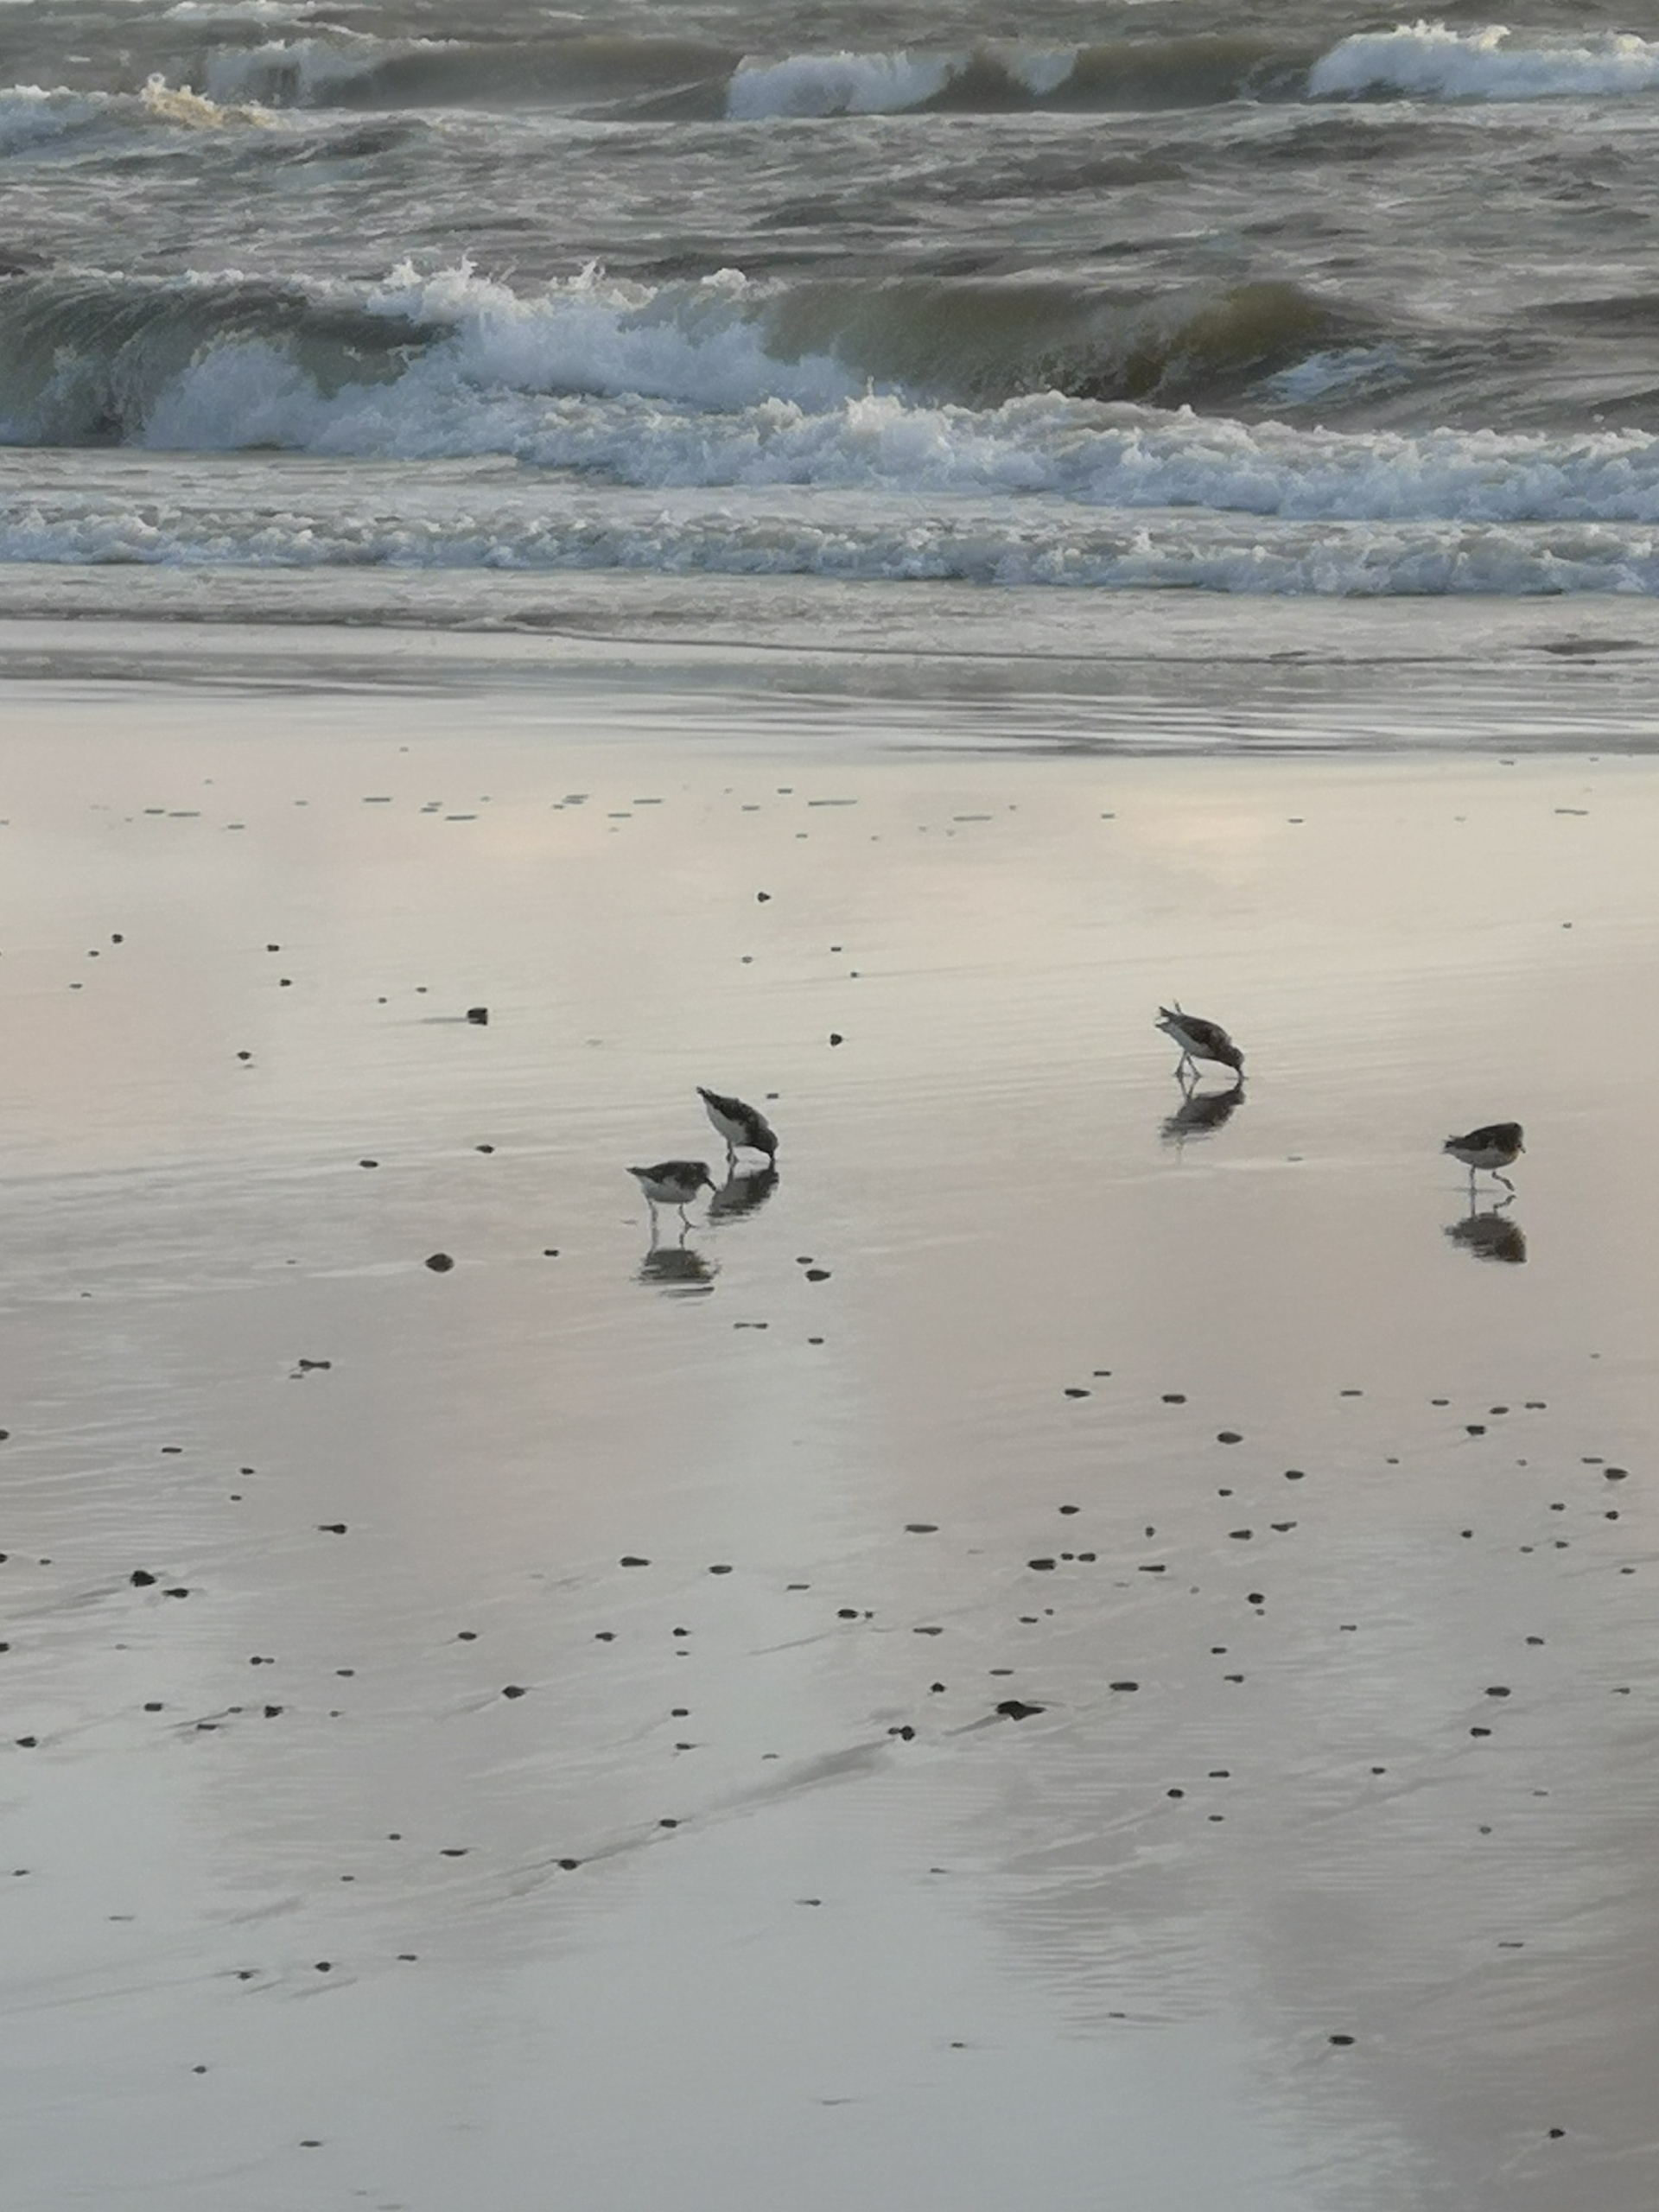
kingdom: Animalia
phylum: Chordata
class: Aves
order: Charadriiformes
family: Scolopacidae
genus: Calidris
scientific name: Calidris alba
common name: Sandløber
